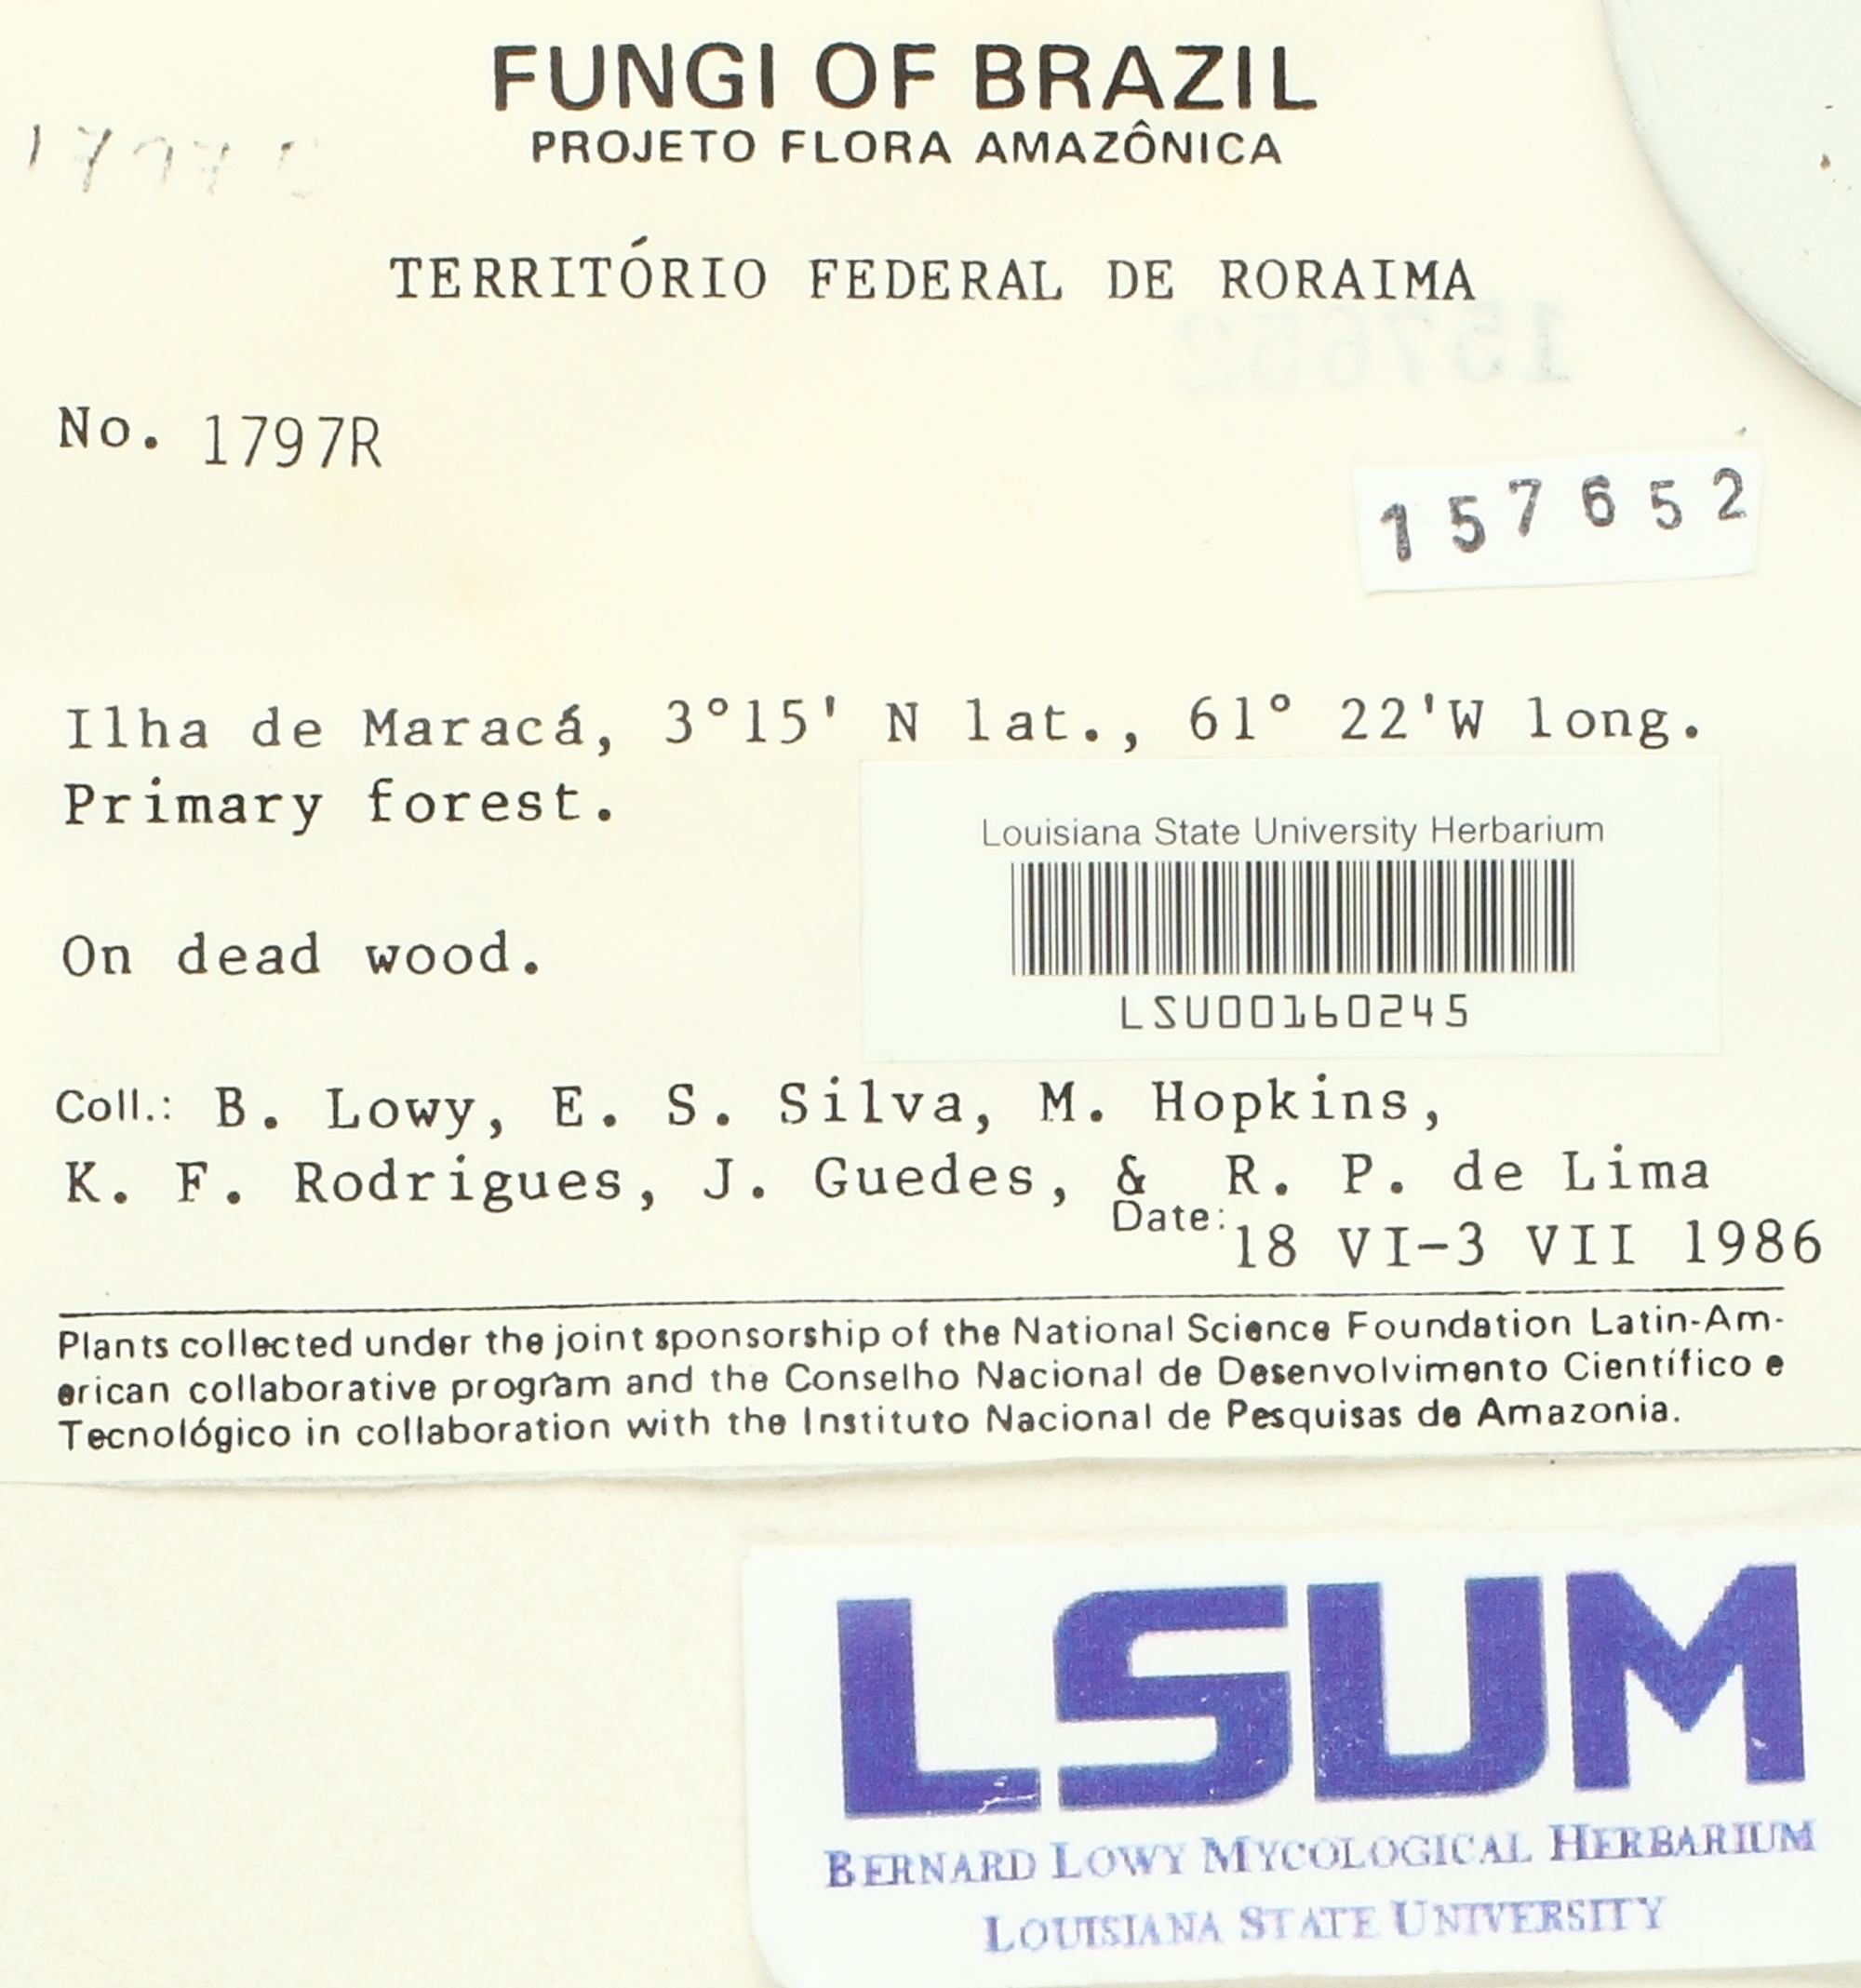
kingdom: Fungi
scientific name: Fungi
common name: Fungi
